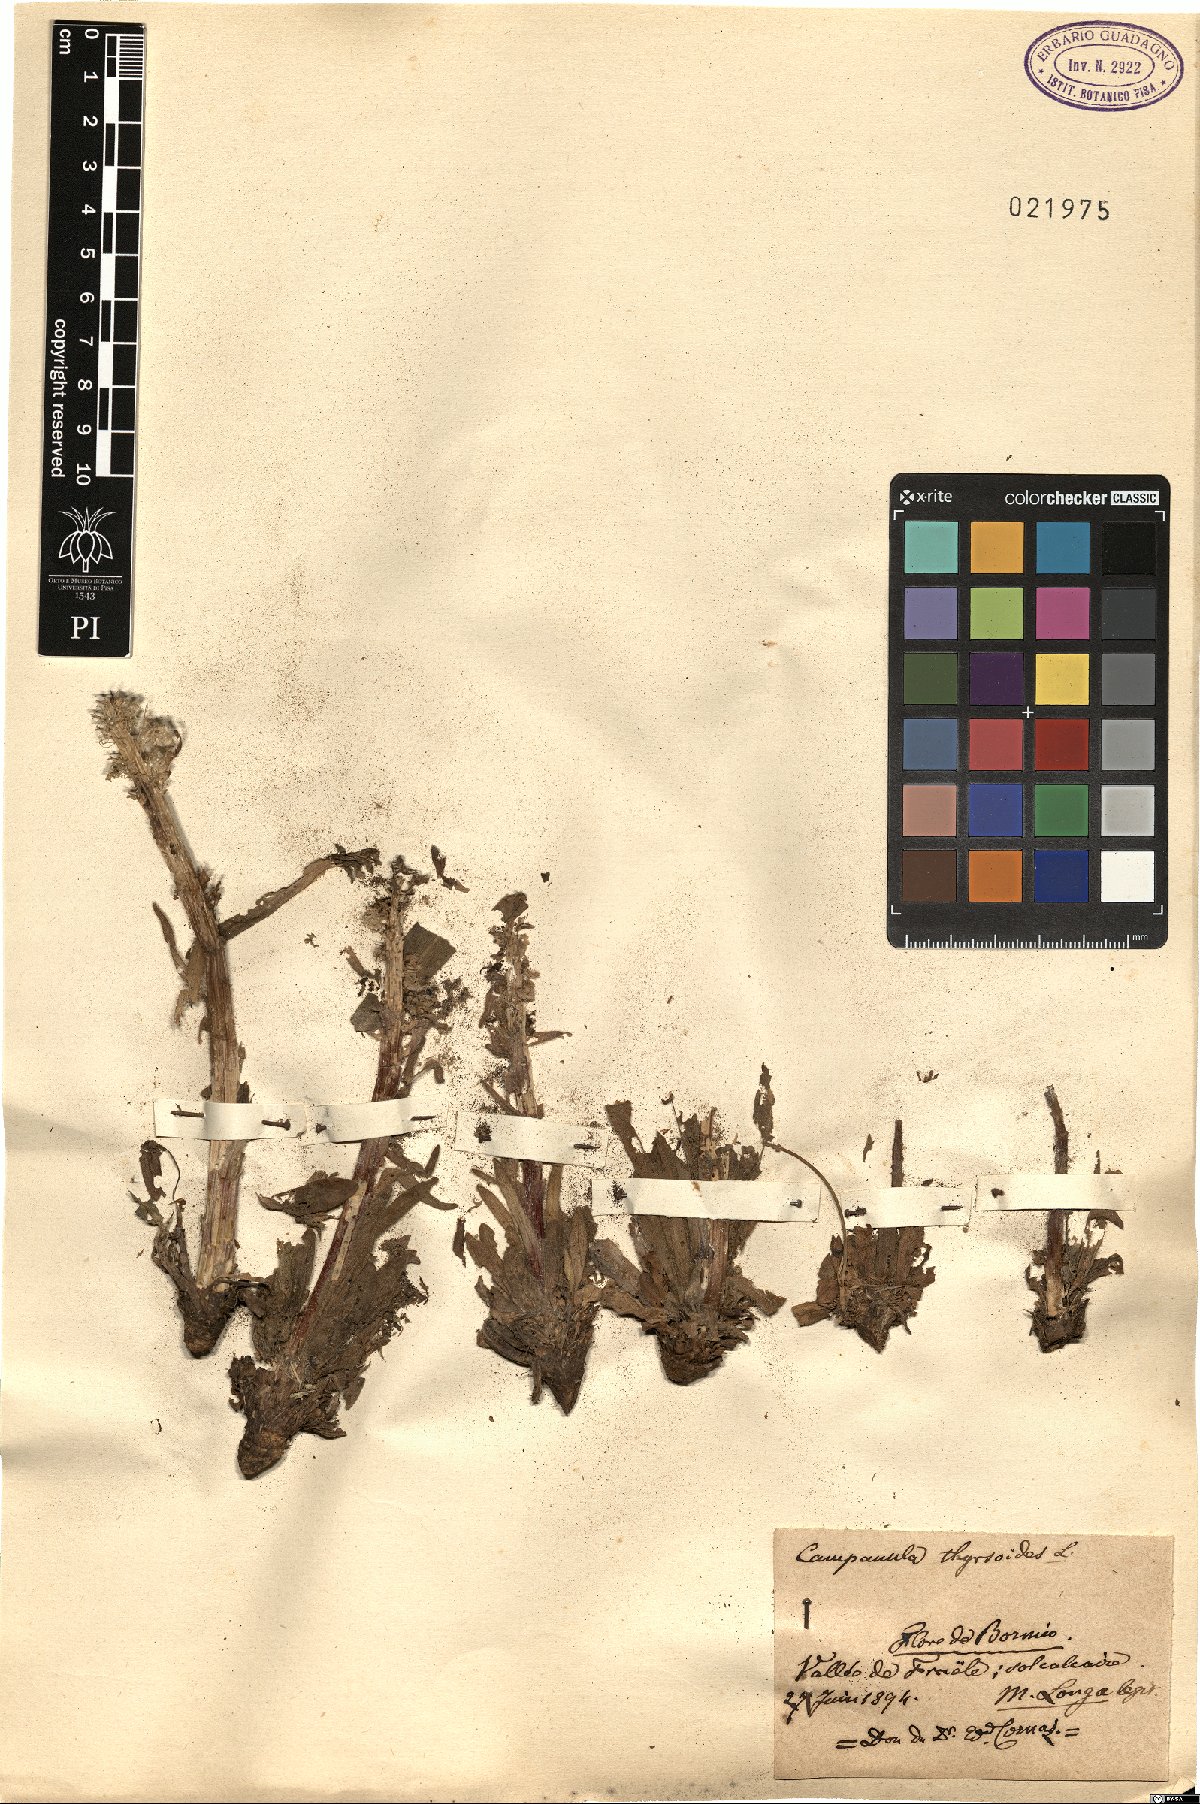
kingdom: Plantae
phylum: Tracheophyta
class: Magnoliopsida
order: Asterales
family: Campanulaceae
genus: Campanula
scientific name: Campanula thyrsoides
